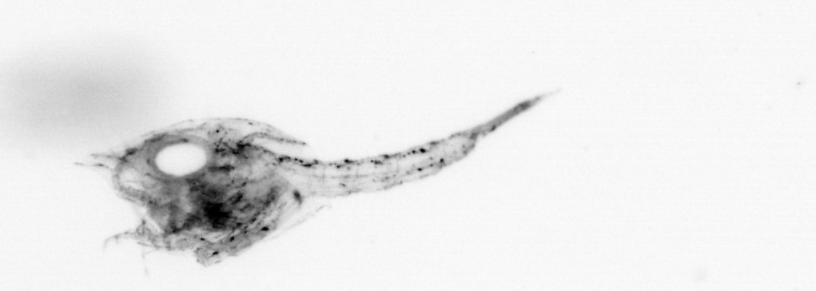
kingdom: Animalia
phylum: Arthropoda
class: Malacostraca
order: Decapoda
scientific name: Decapoda
